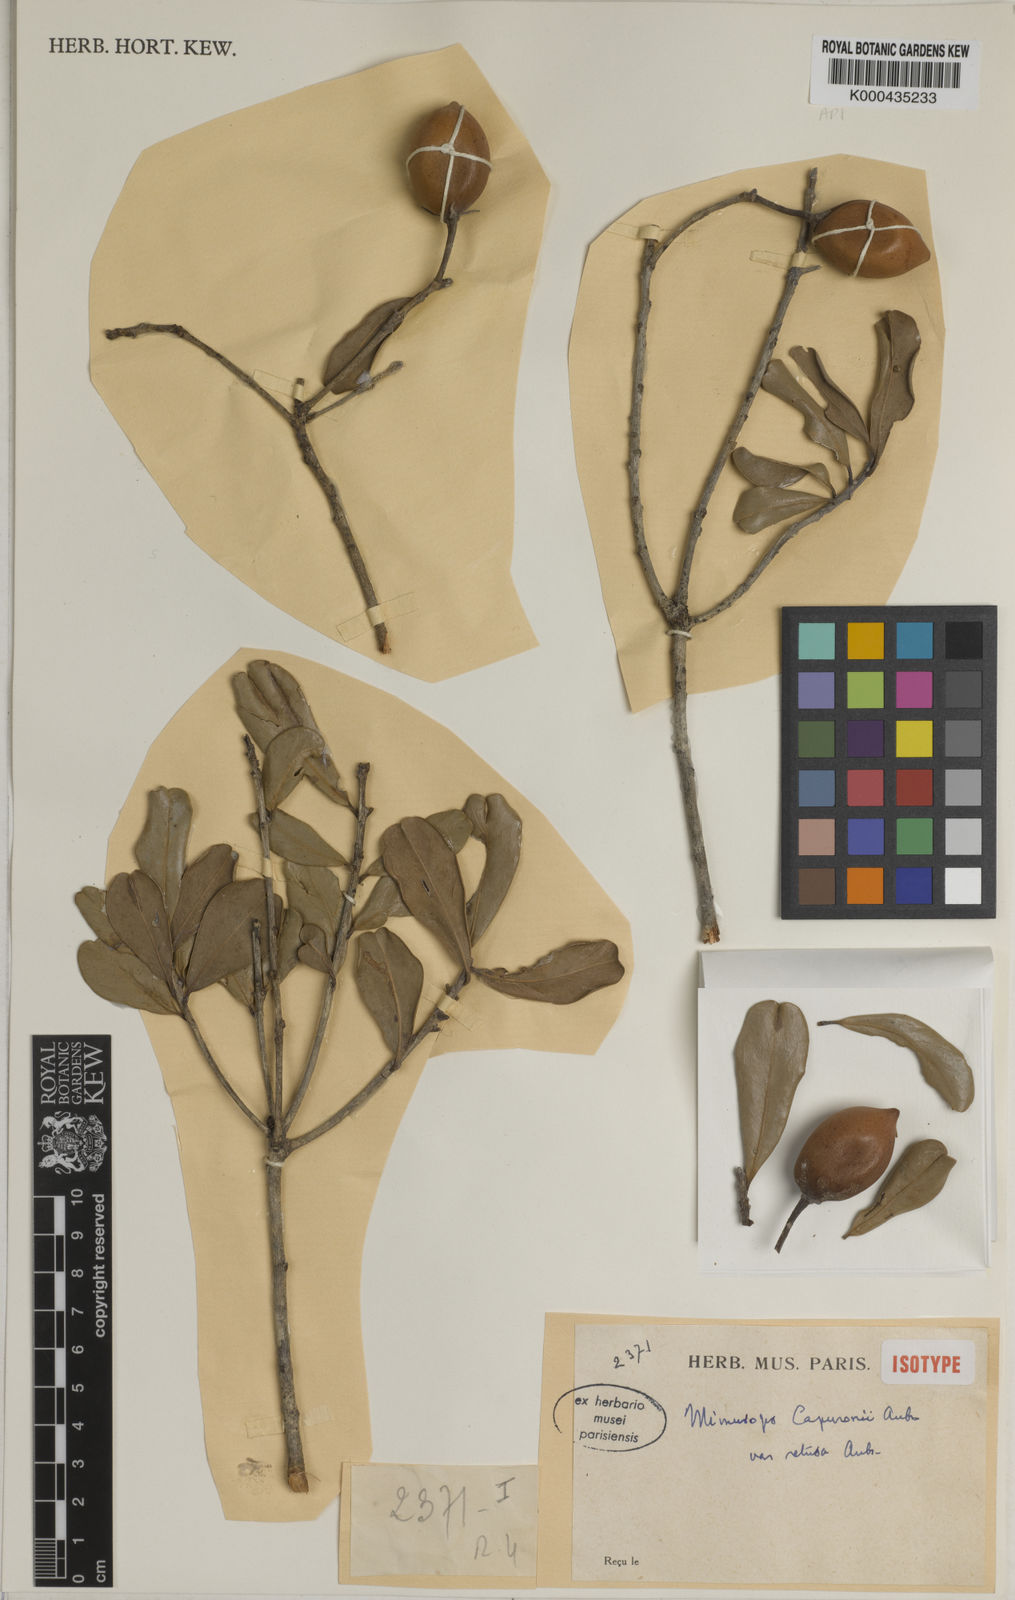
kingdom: Plantae
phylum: Tracheophyta
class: Magnoliopsida
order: Ericales
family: Sapotaceae
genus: Mimusops
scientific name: Mimusops
